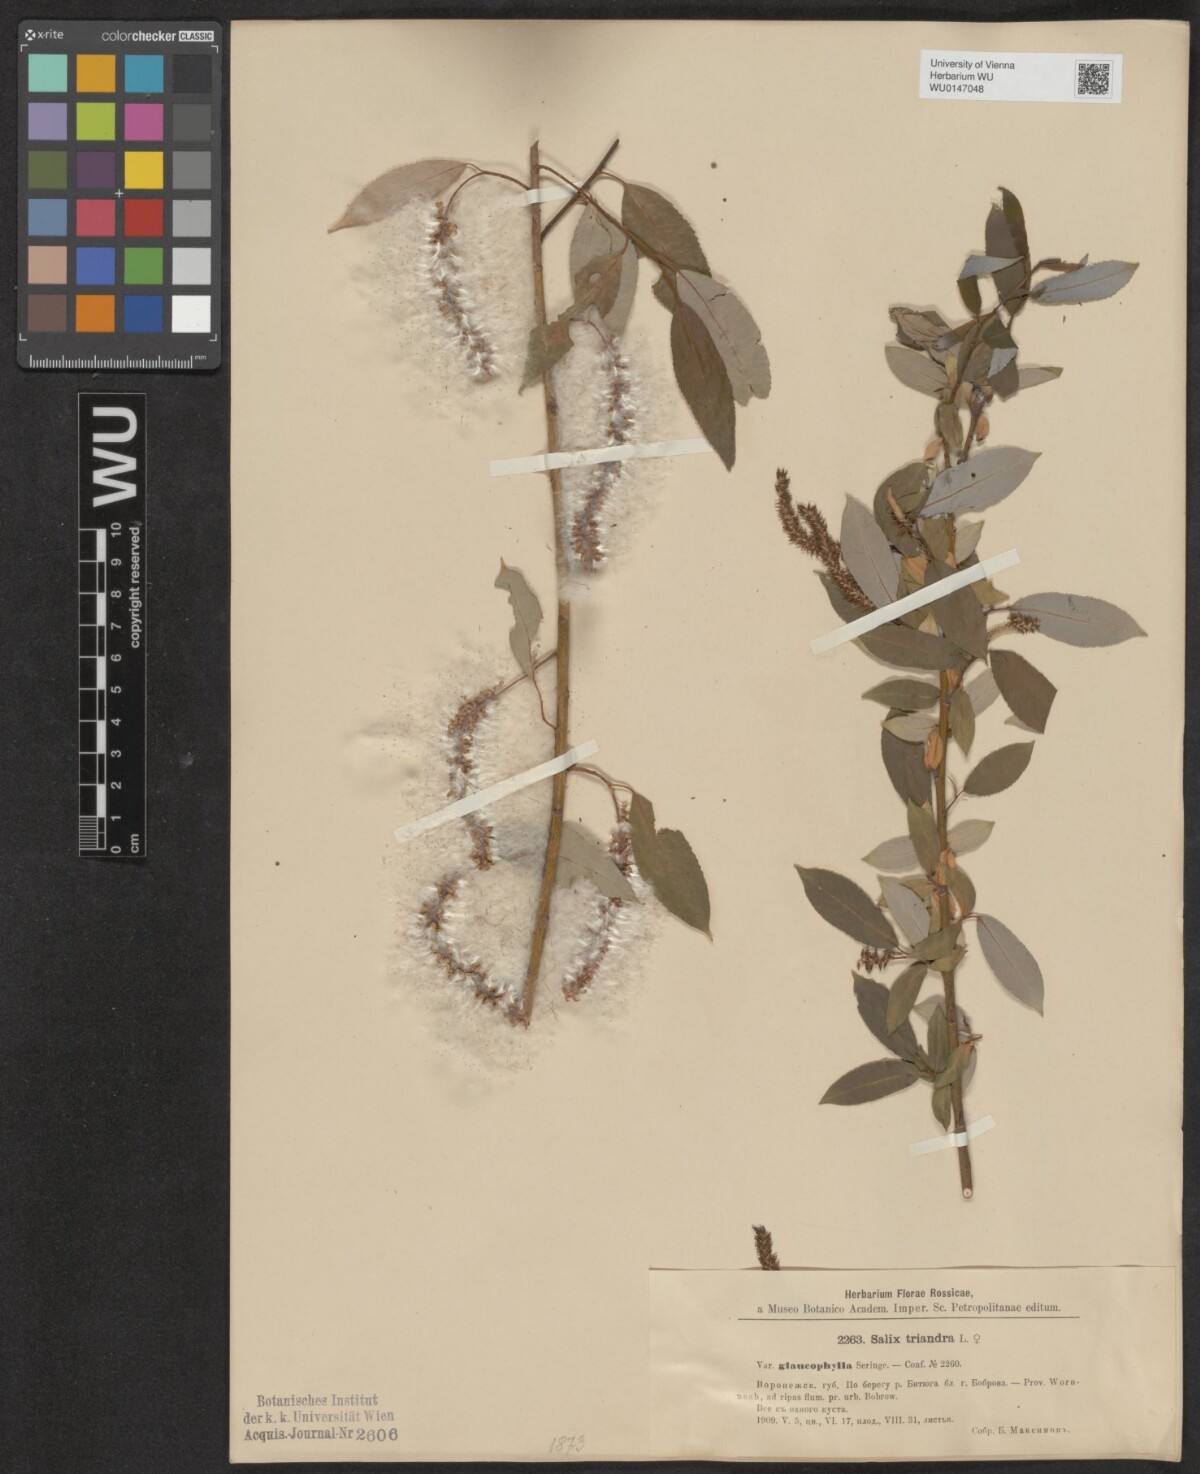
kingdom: Plantae
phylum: Tracheophyta
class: Magnoliopsida
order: Malpighiales
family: Salicaceae
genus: Salix
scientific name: Salix triandra
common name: Almond willow
